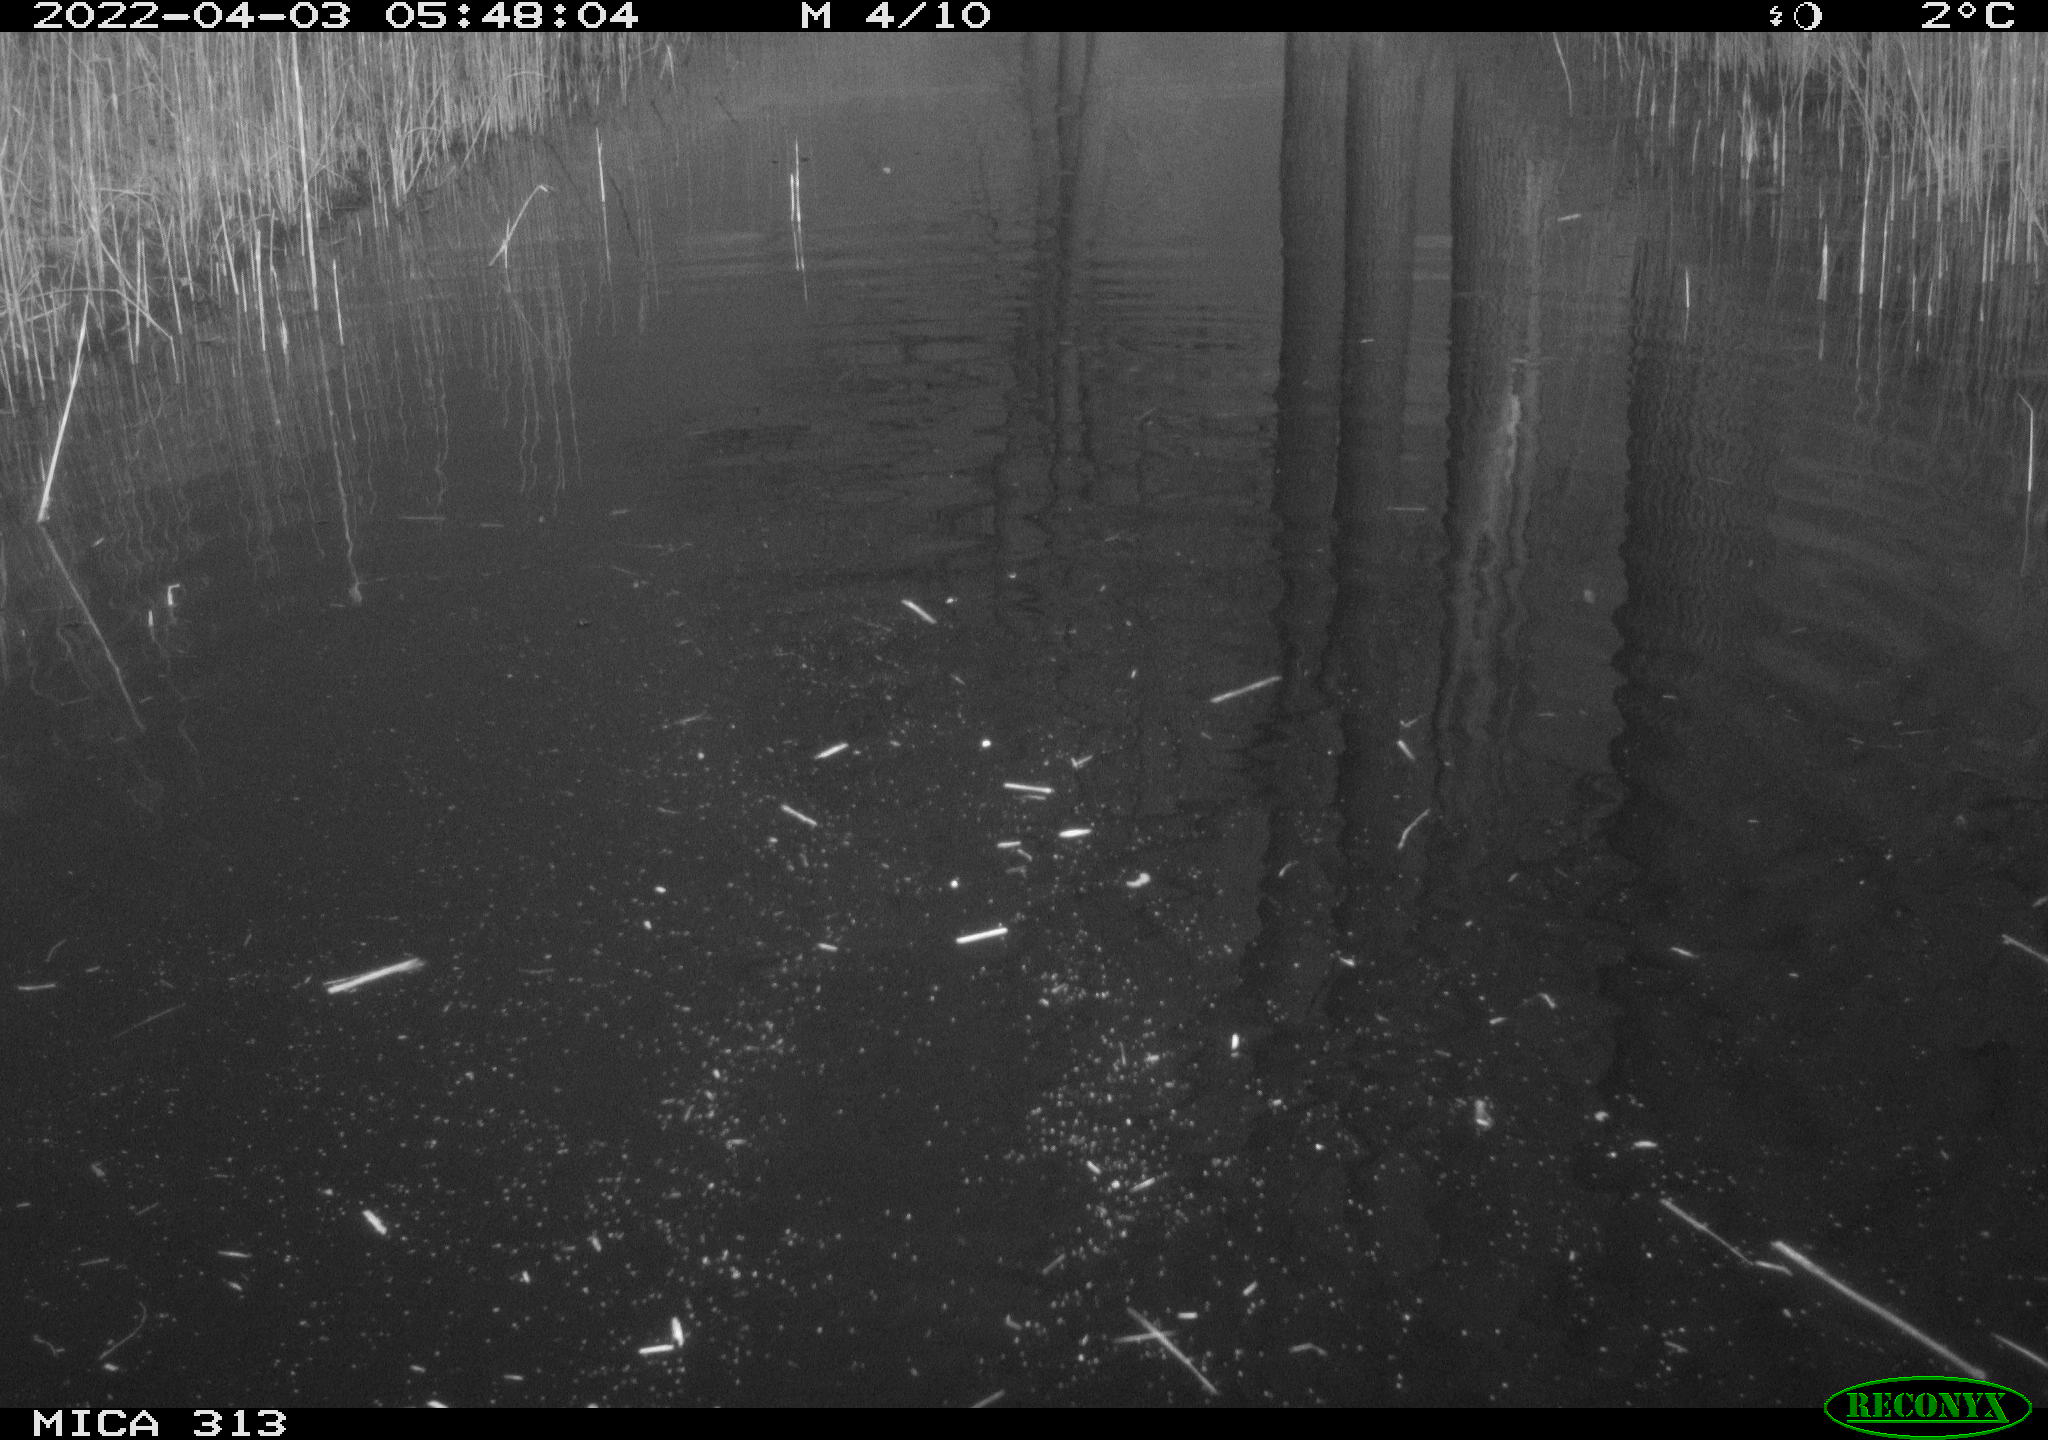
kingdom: Animalia
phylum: Chordata
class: Aves
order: Anseriformes
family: Anatidae
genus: Anas
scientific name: Anas platyrhynchos
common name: Mallard
